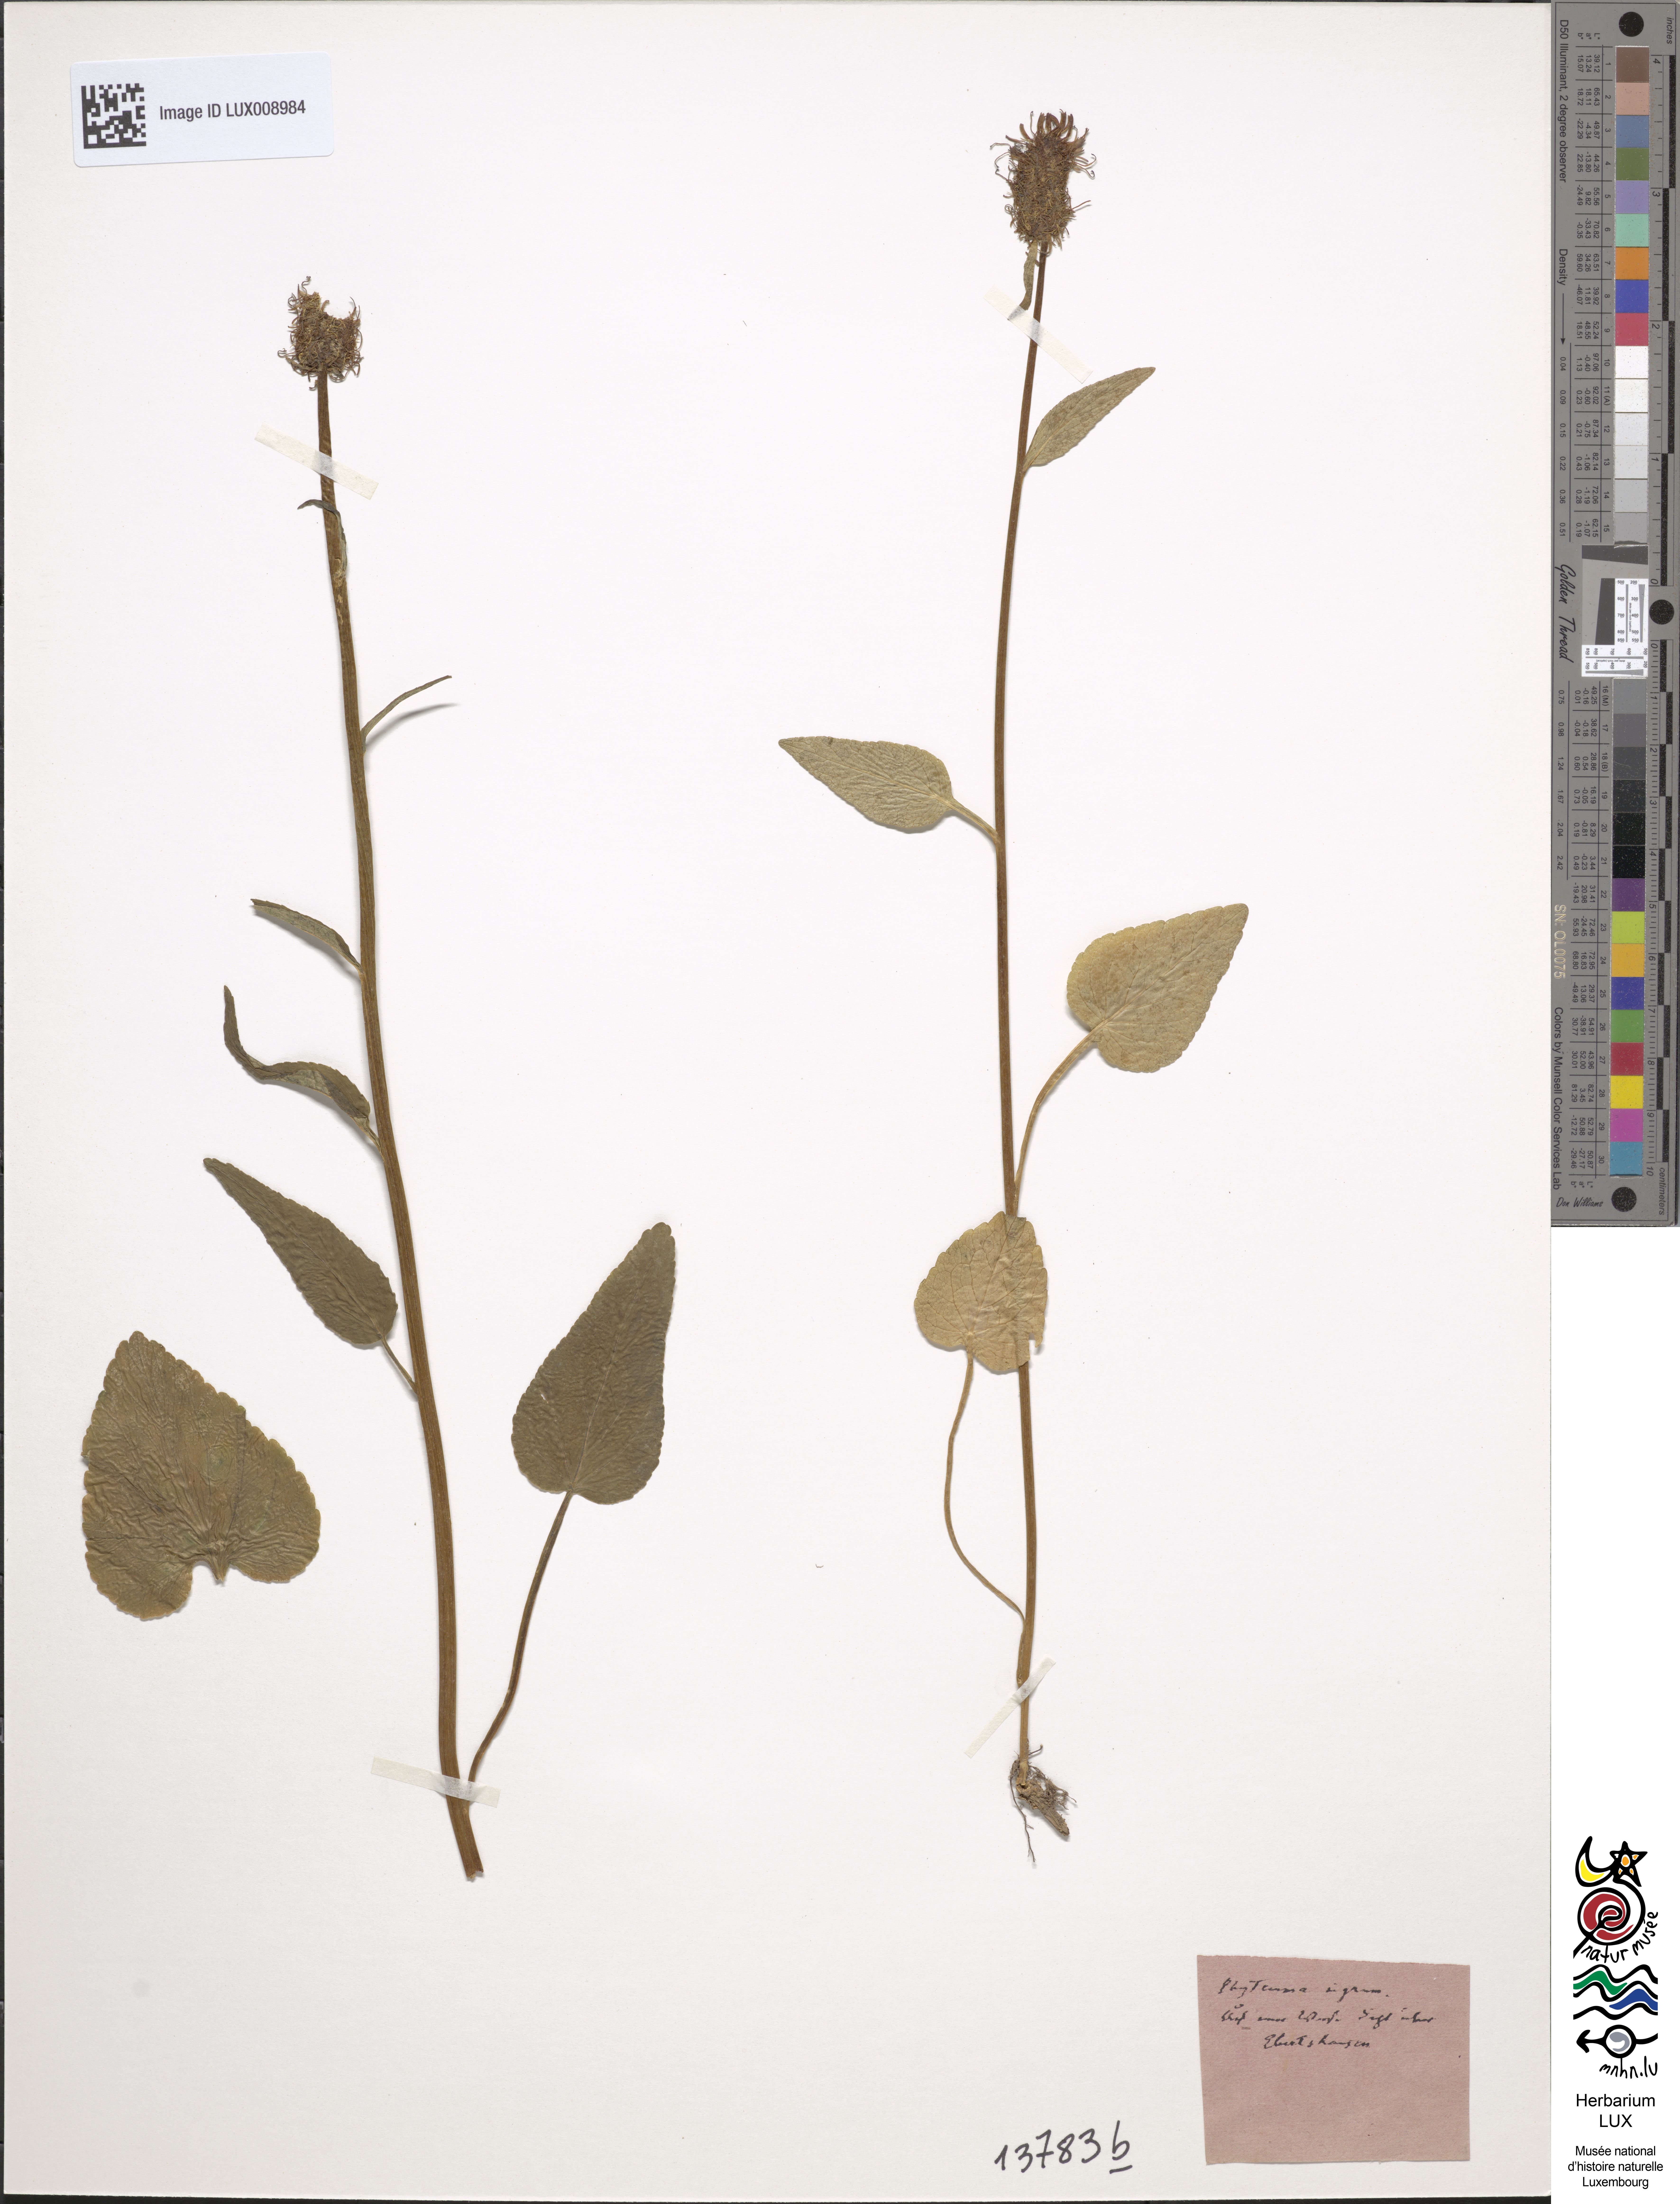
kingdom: Plantae
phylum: Tracheophyta
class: Magnoliopsida
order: Asterales
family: Campanulaceae
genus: Phyteuma
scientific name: Phyteuma nigrum
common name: Black rampion
